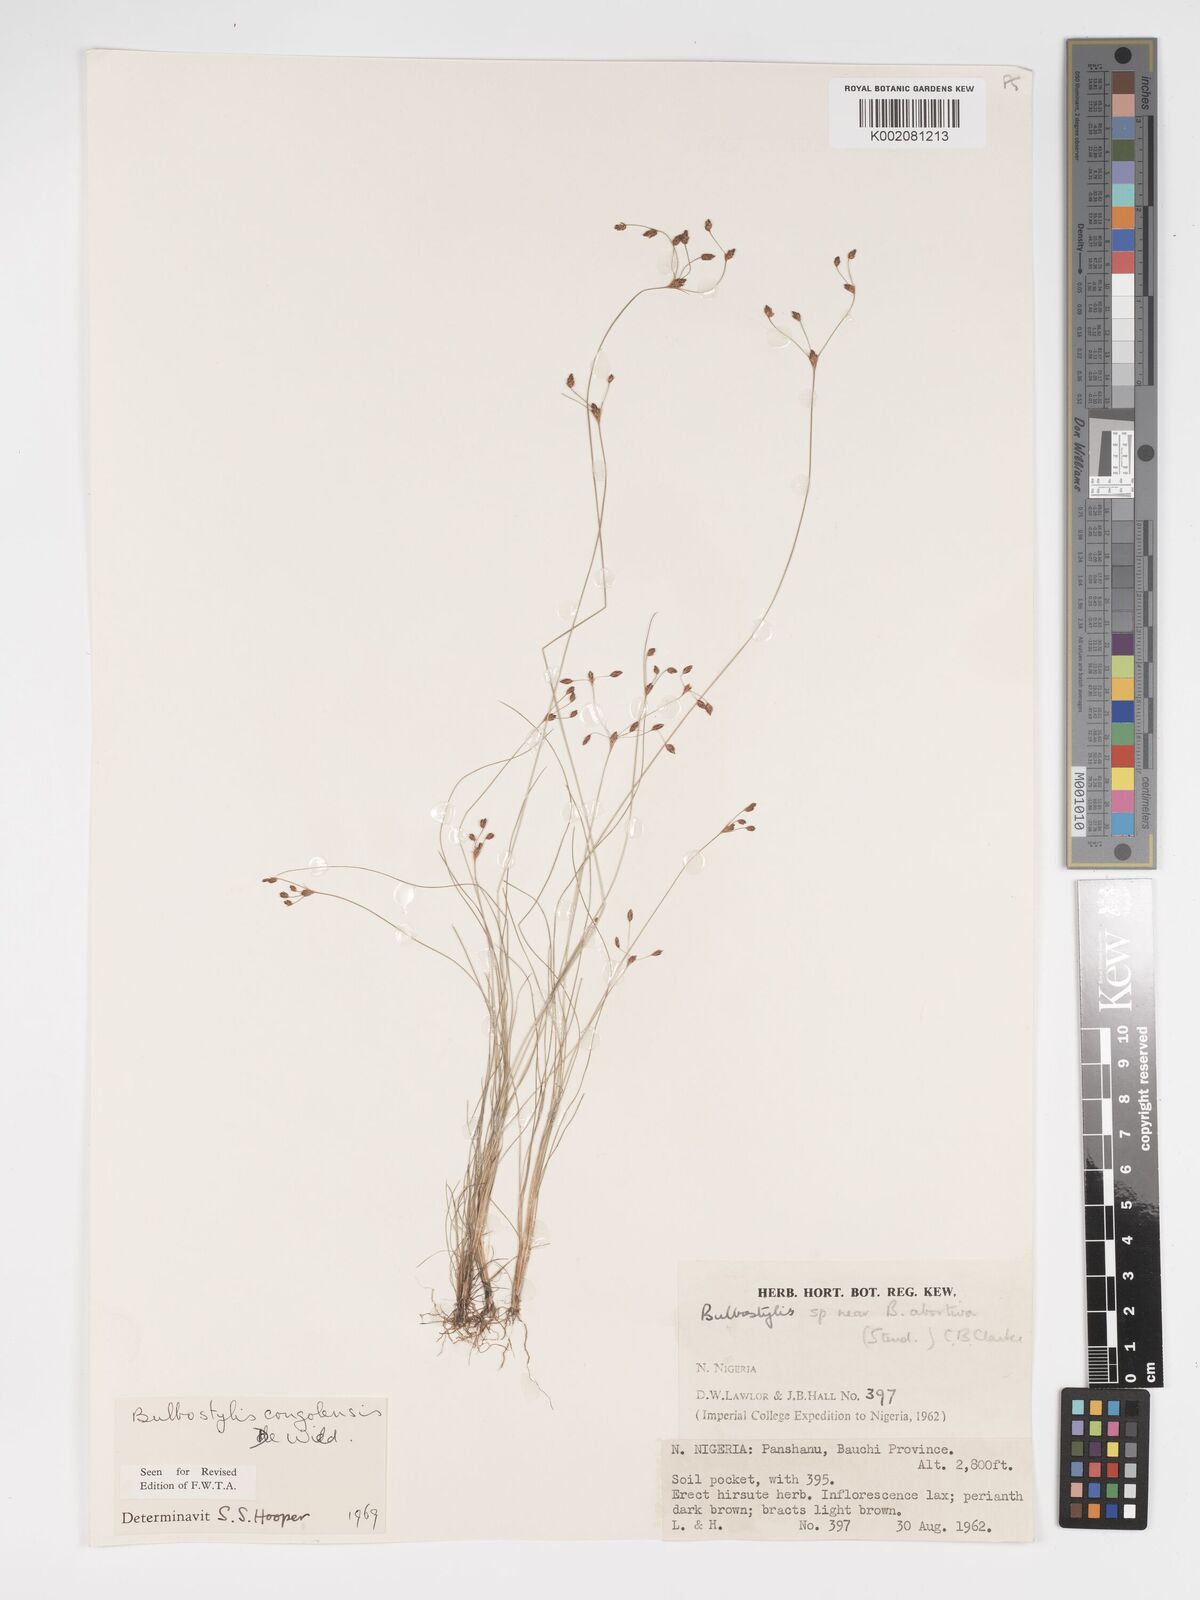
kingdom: Plantae
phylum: Tracheophyta
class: Liliopsida
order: Poales
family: Cyperaceae
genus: Bulbostylis
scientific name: Bulbostylis congolensis
